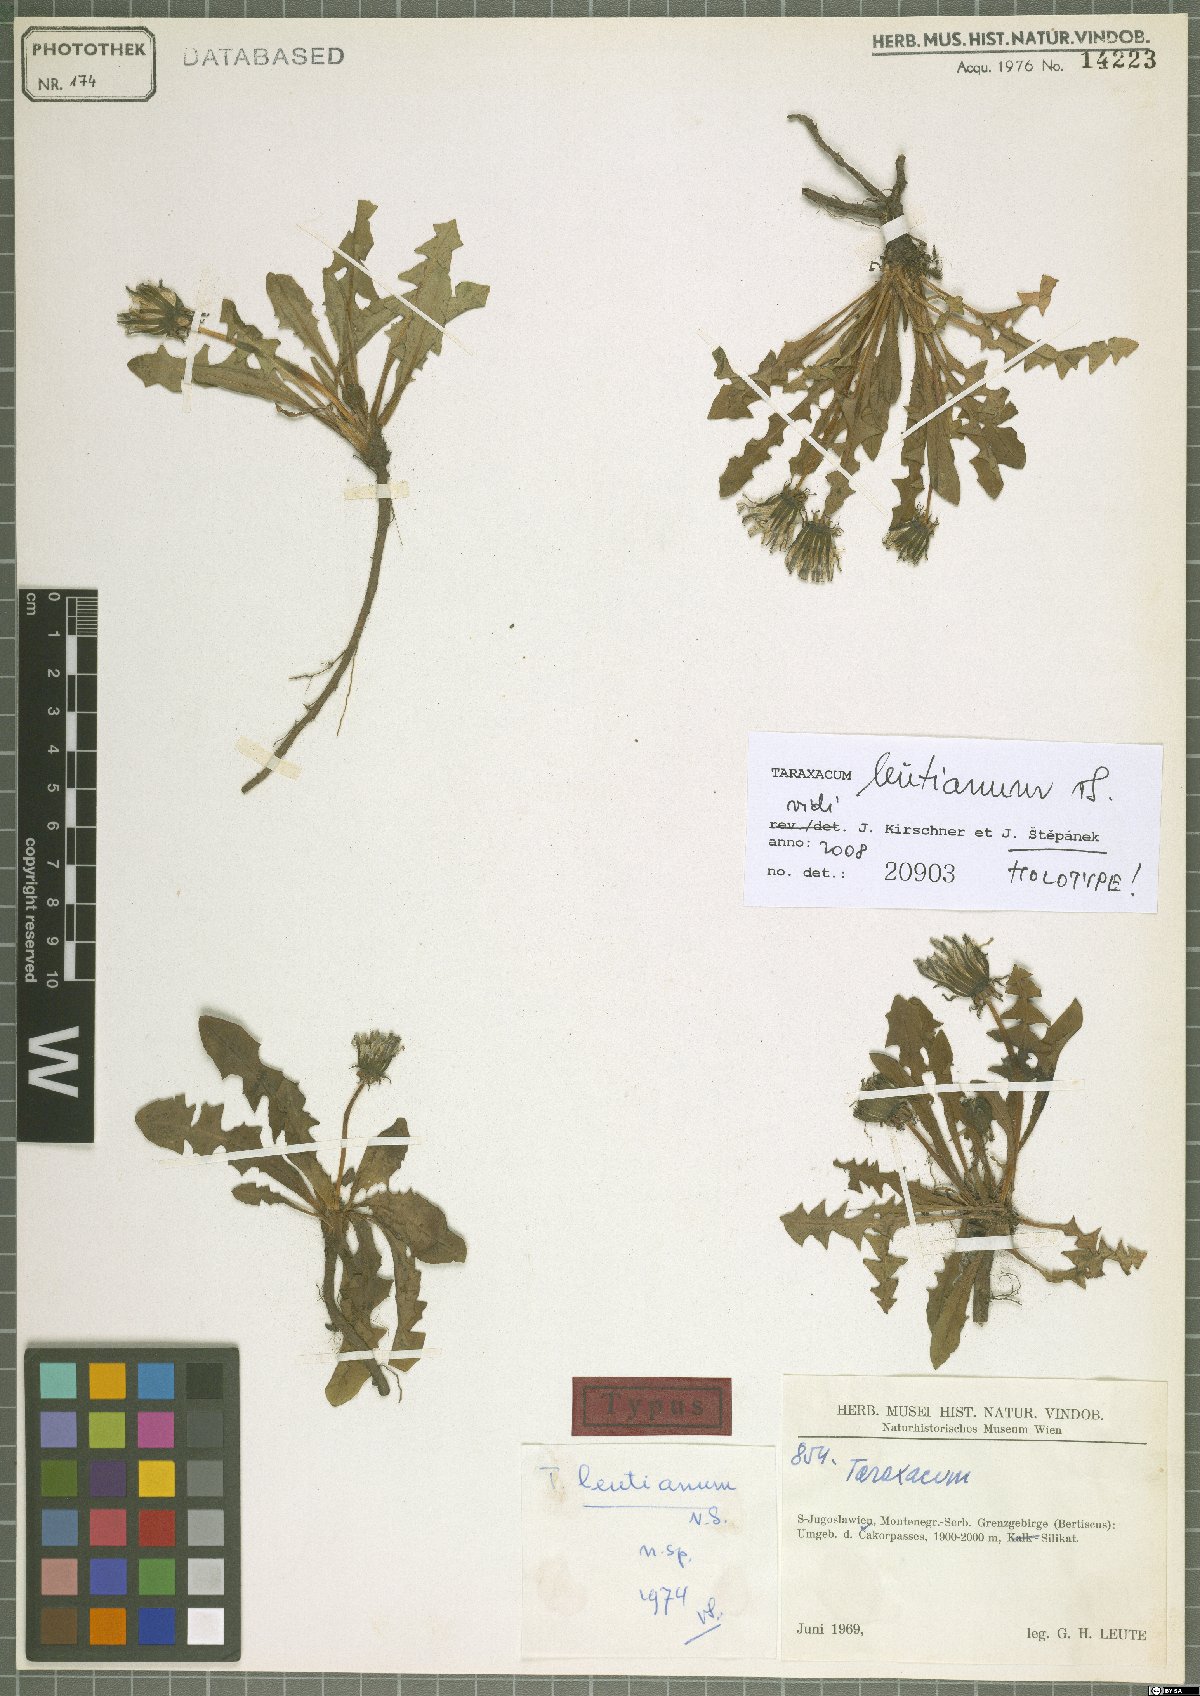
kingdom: Plantae
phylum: Tracheophyta
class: Magnoliopsida
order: Asterales
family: Asteraceae
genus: Taraxacum
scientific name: Taraxacum leutianum
